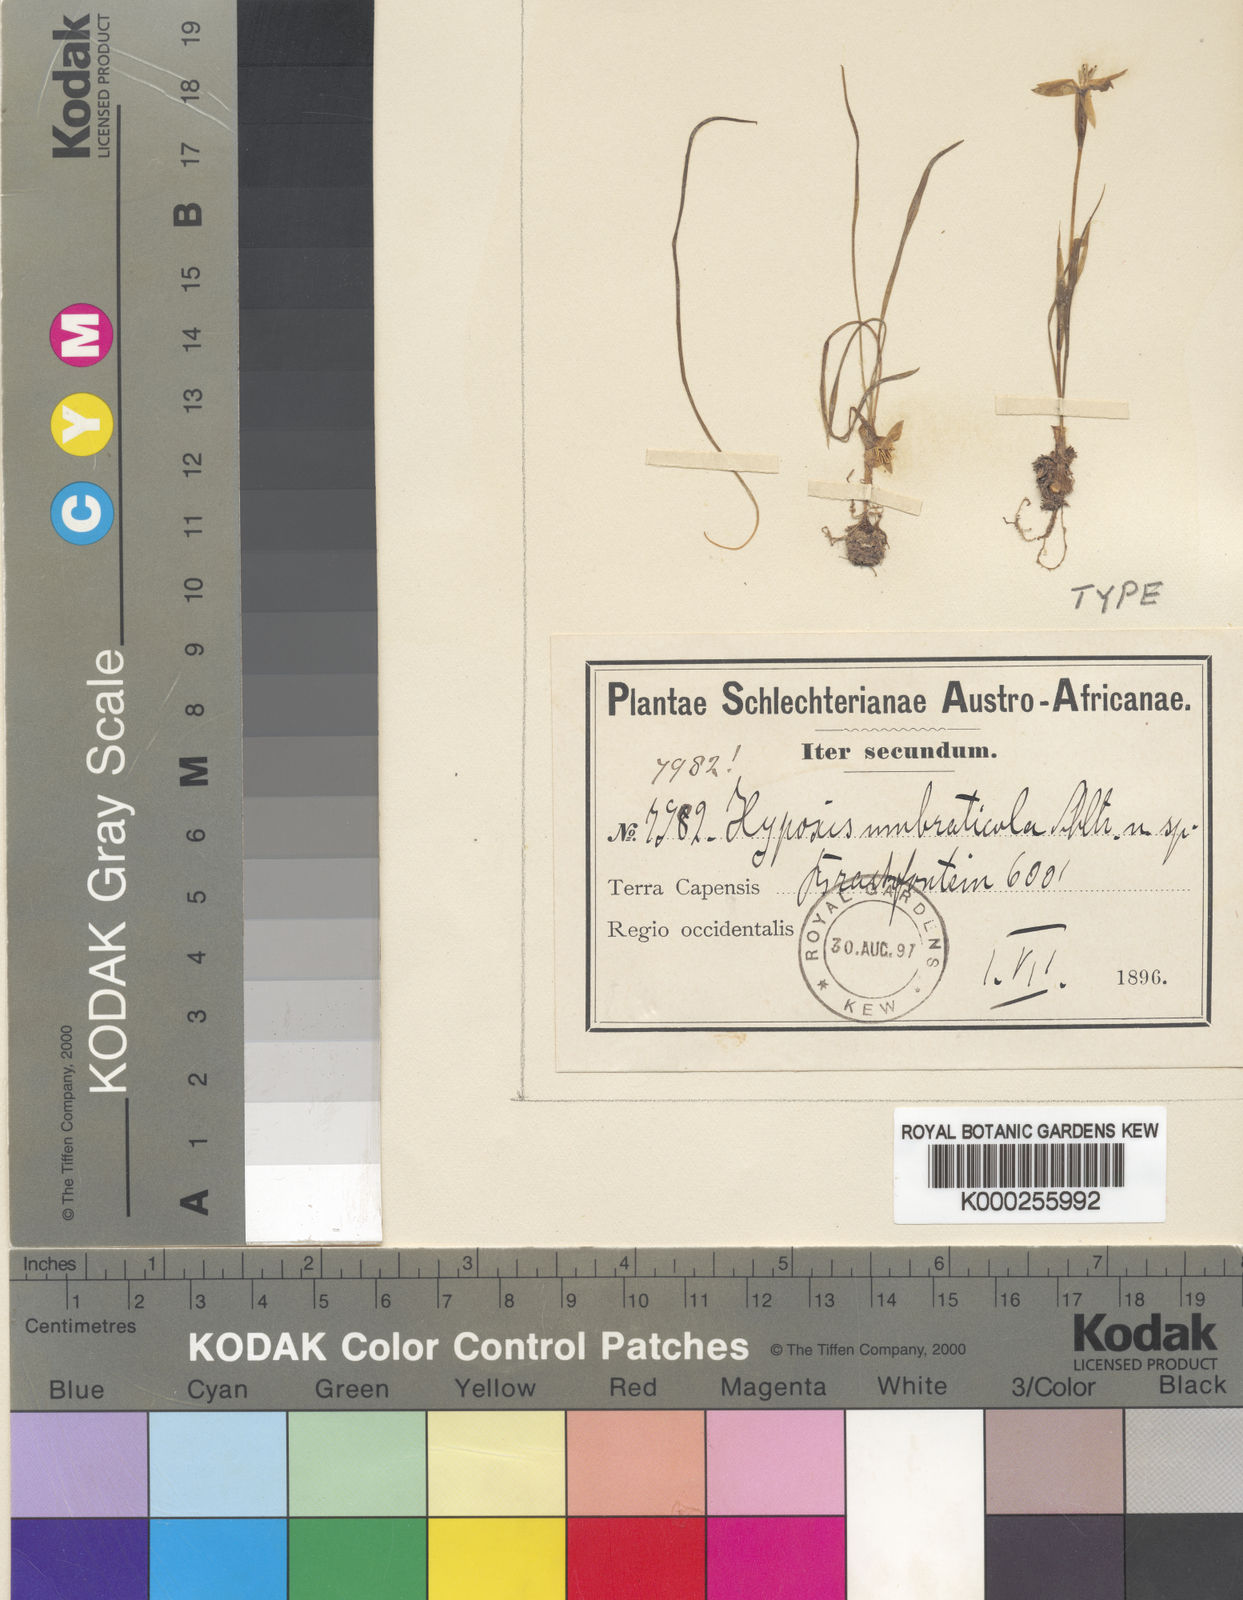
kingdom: Plantae
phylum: Tracheophyta
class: Liliopsida
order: Asparagales
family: Hypoxidaceae
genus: Pauridia
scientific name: Pauridia umbraticola
